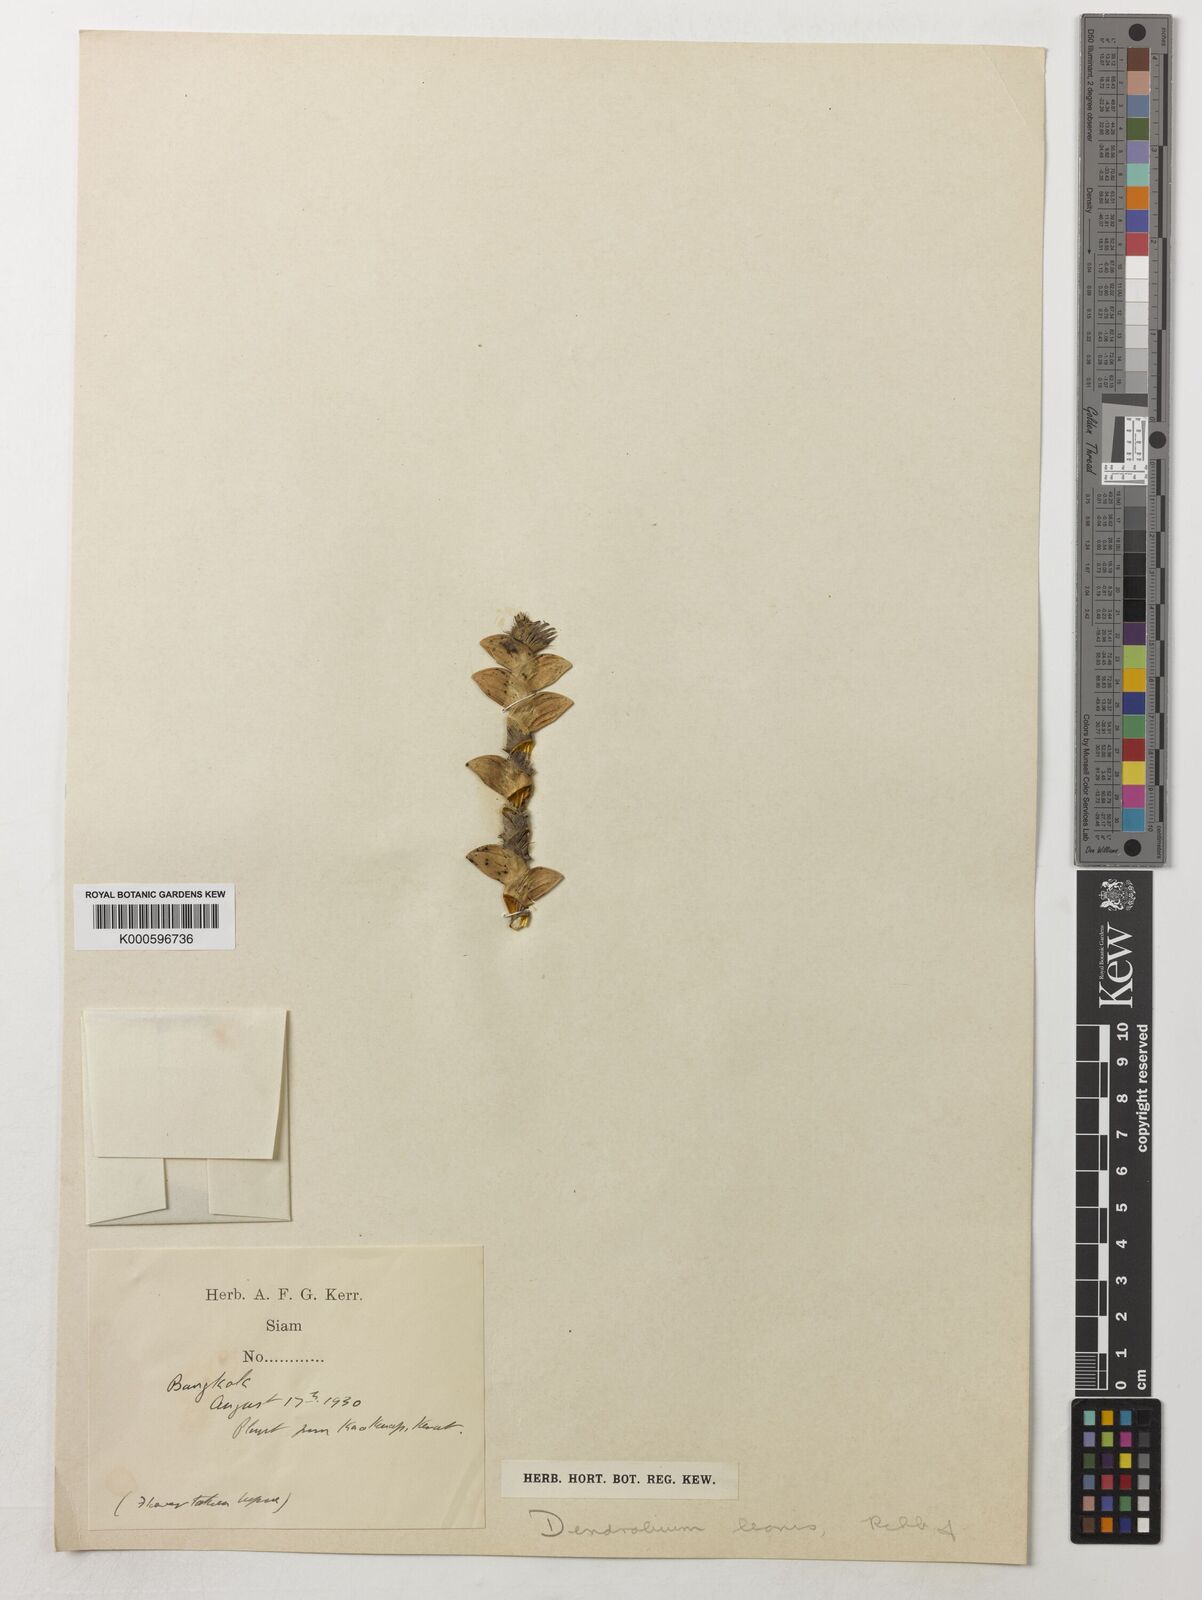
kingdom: Plantae
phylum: Tracheophyta
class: Liliopsida
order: Asparagales
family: Orchidaceae
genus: Dendrobium
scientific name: Dendrobium leonis
